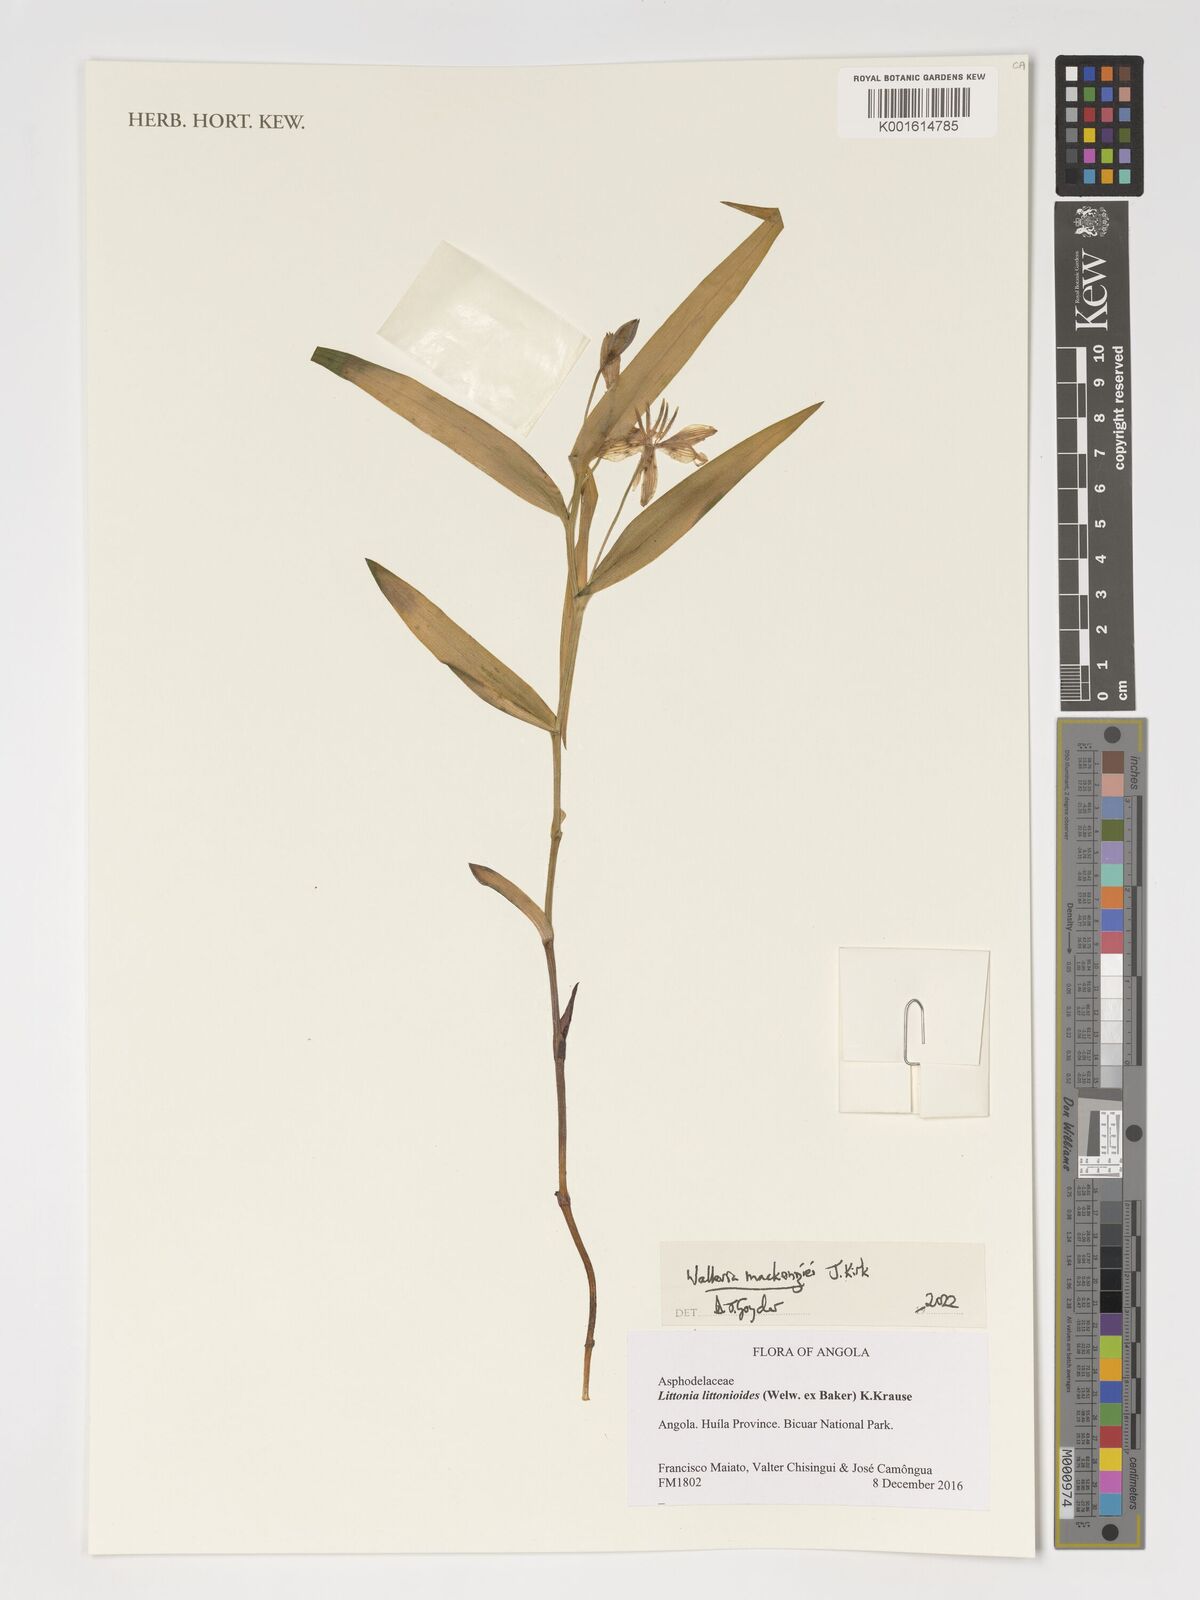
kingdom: Plantae
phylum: Tracheophyta
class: Liliopsida
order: Asparagales
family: Tecophilaeaceae
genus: Walleria
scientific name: Walleria mackenziei
